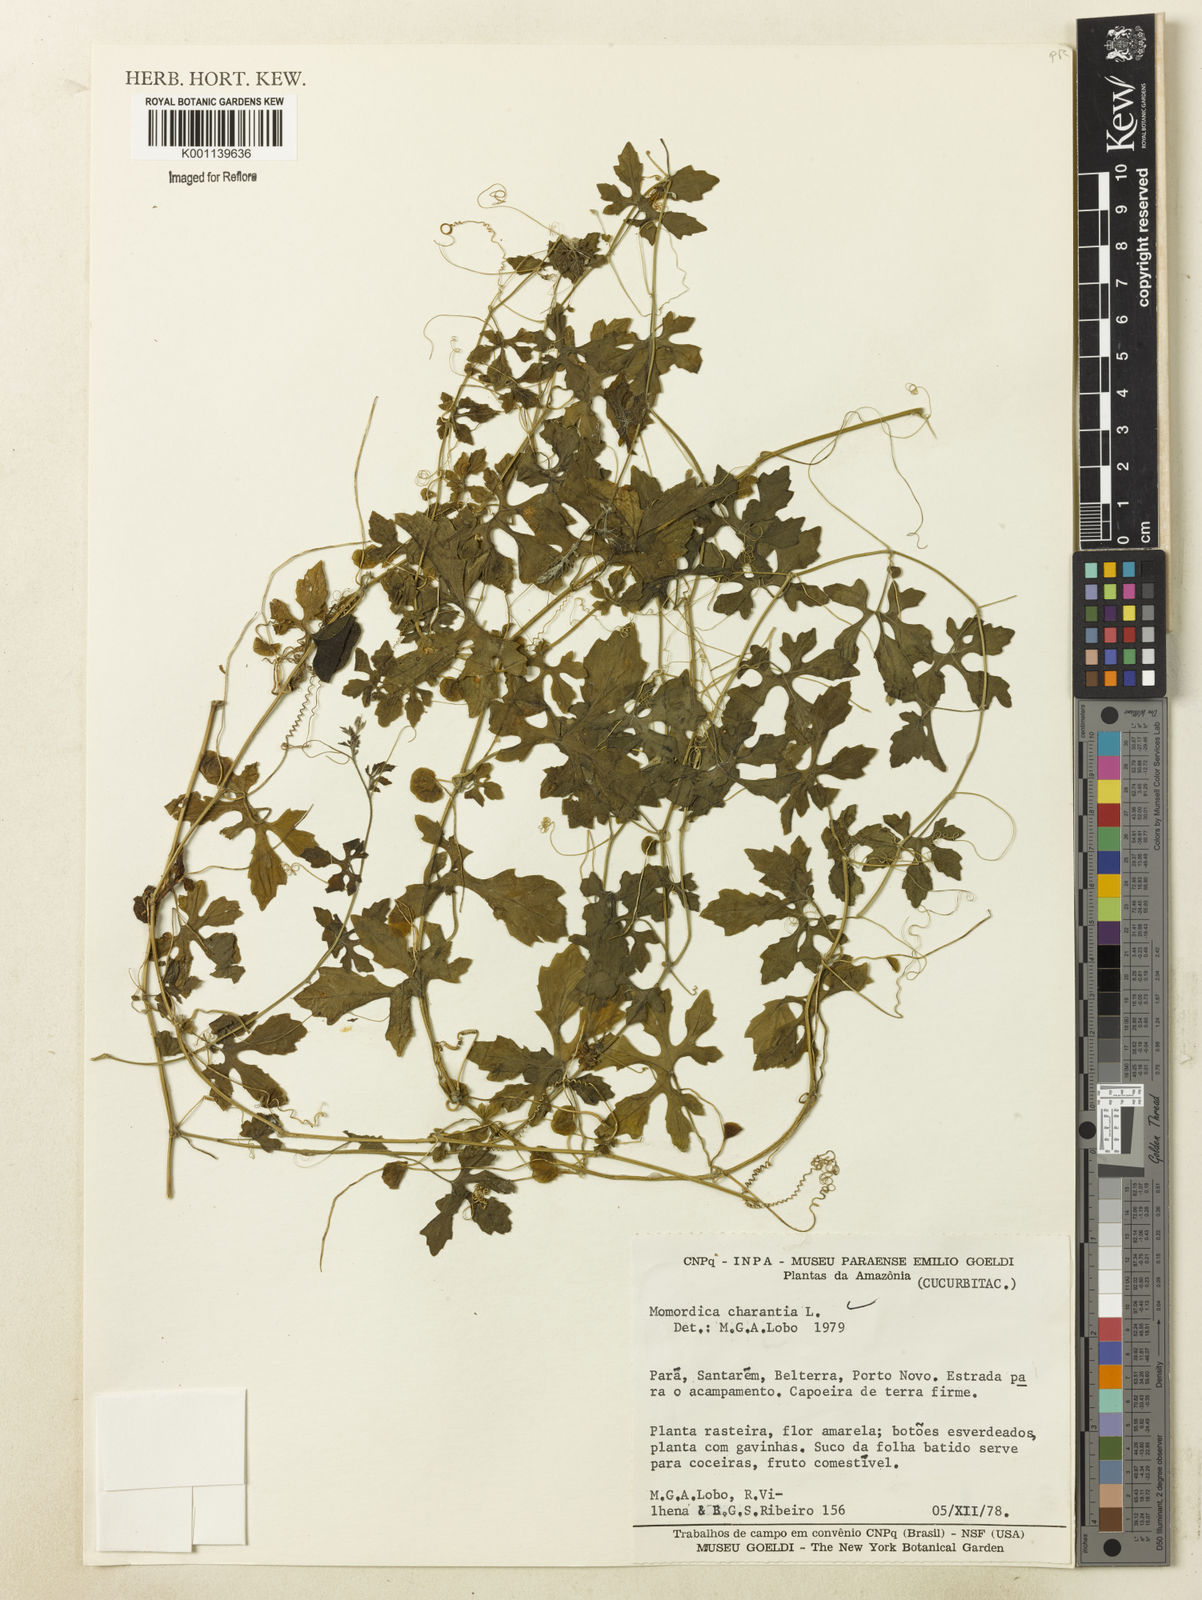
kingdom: Plantae
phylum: Tracheophyta
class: Magnoliopsida
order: Cucurbitales
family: Cucurbitaceae
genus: Momordica
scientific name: Momordica charantia
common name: Balsampear
